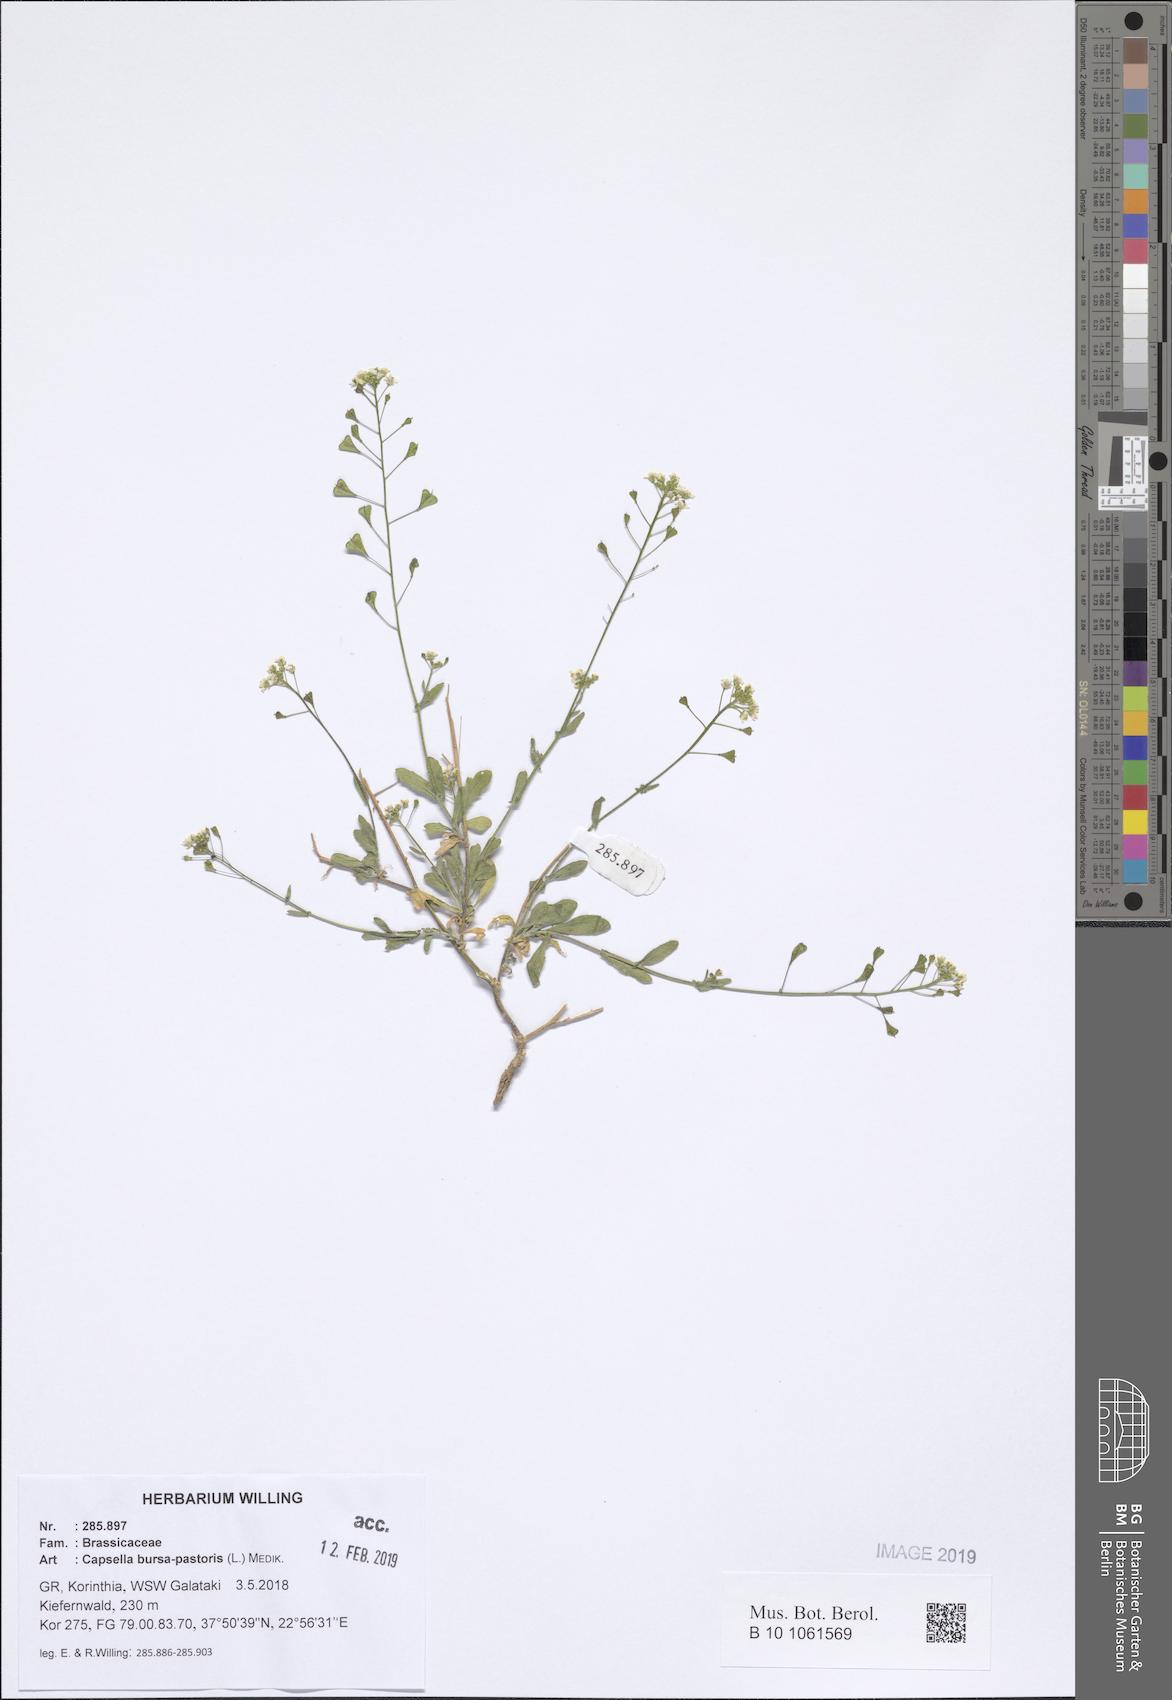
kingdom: Plantae
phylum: Tracheophyta
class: Magnoliopsida
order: Brassicales
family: Brassicaceae
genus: Capsella
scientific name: Capsella bursa-pastoris
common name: Shepherd's purse
